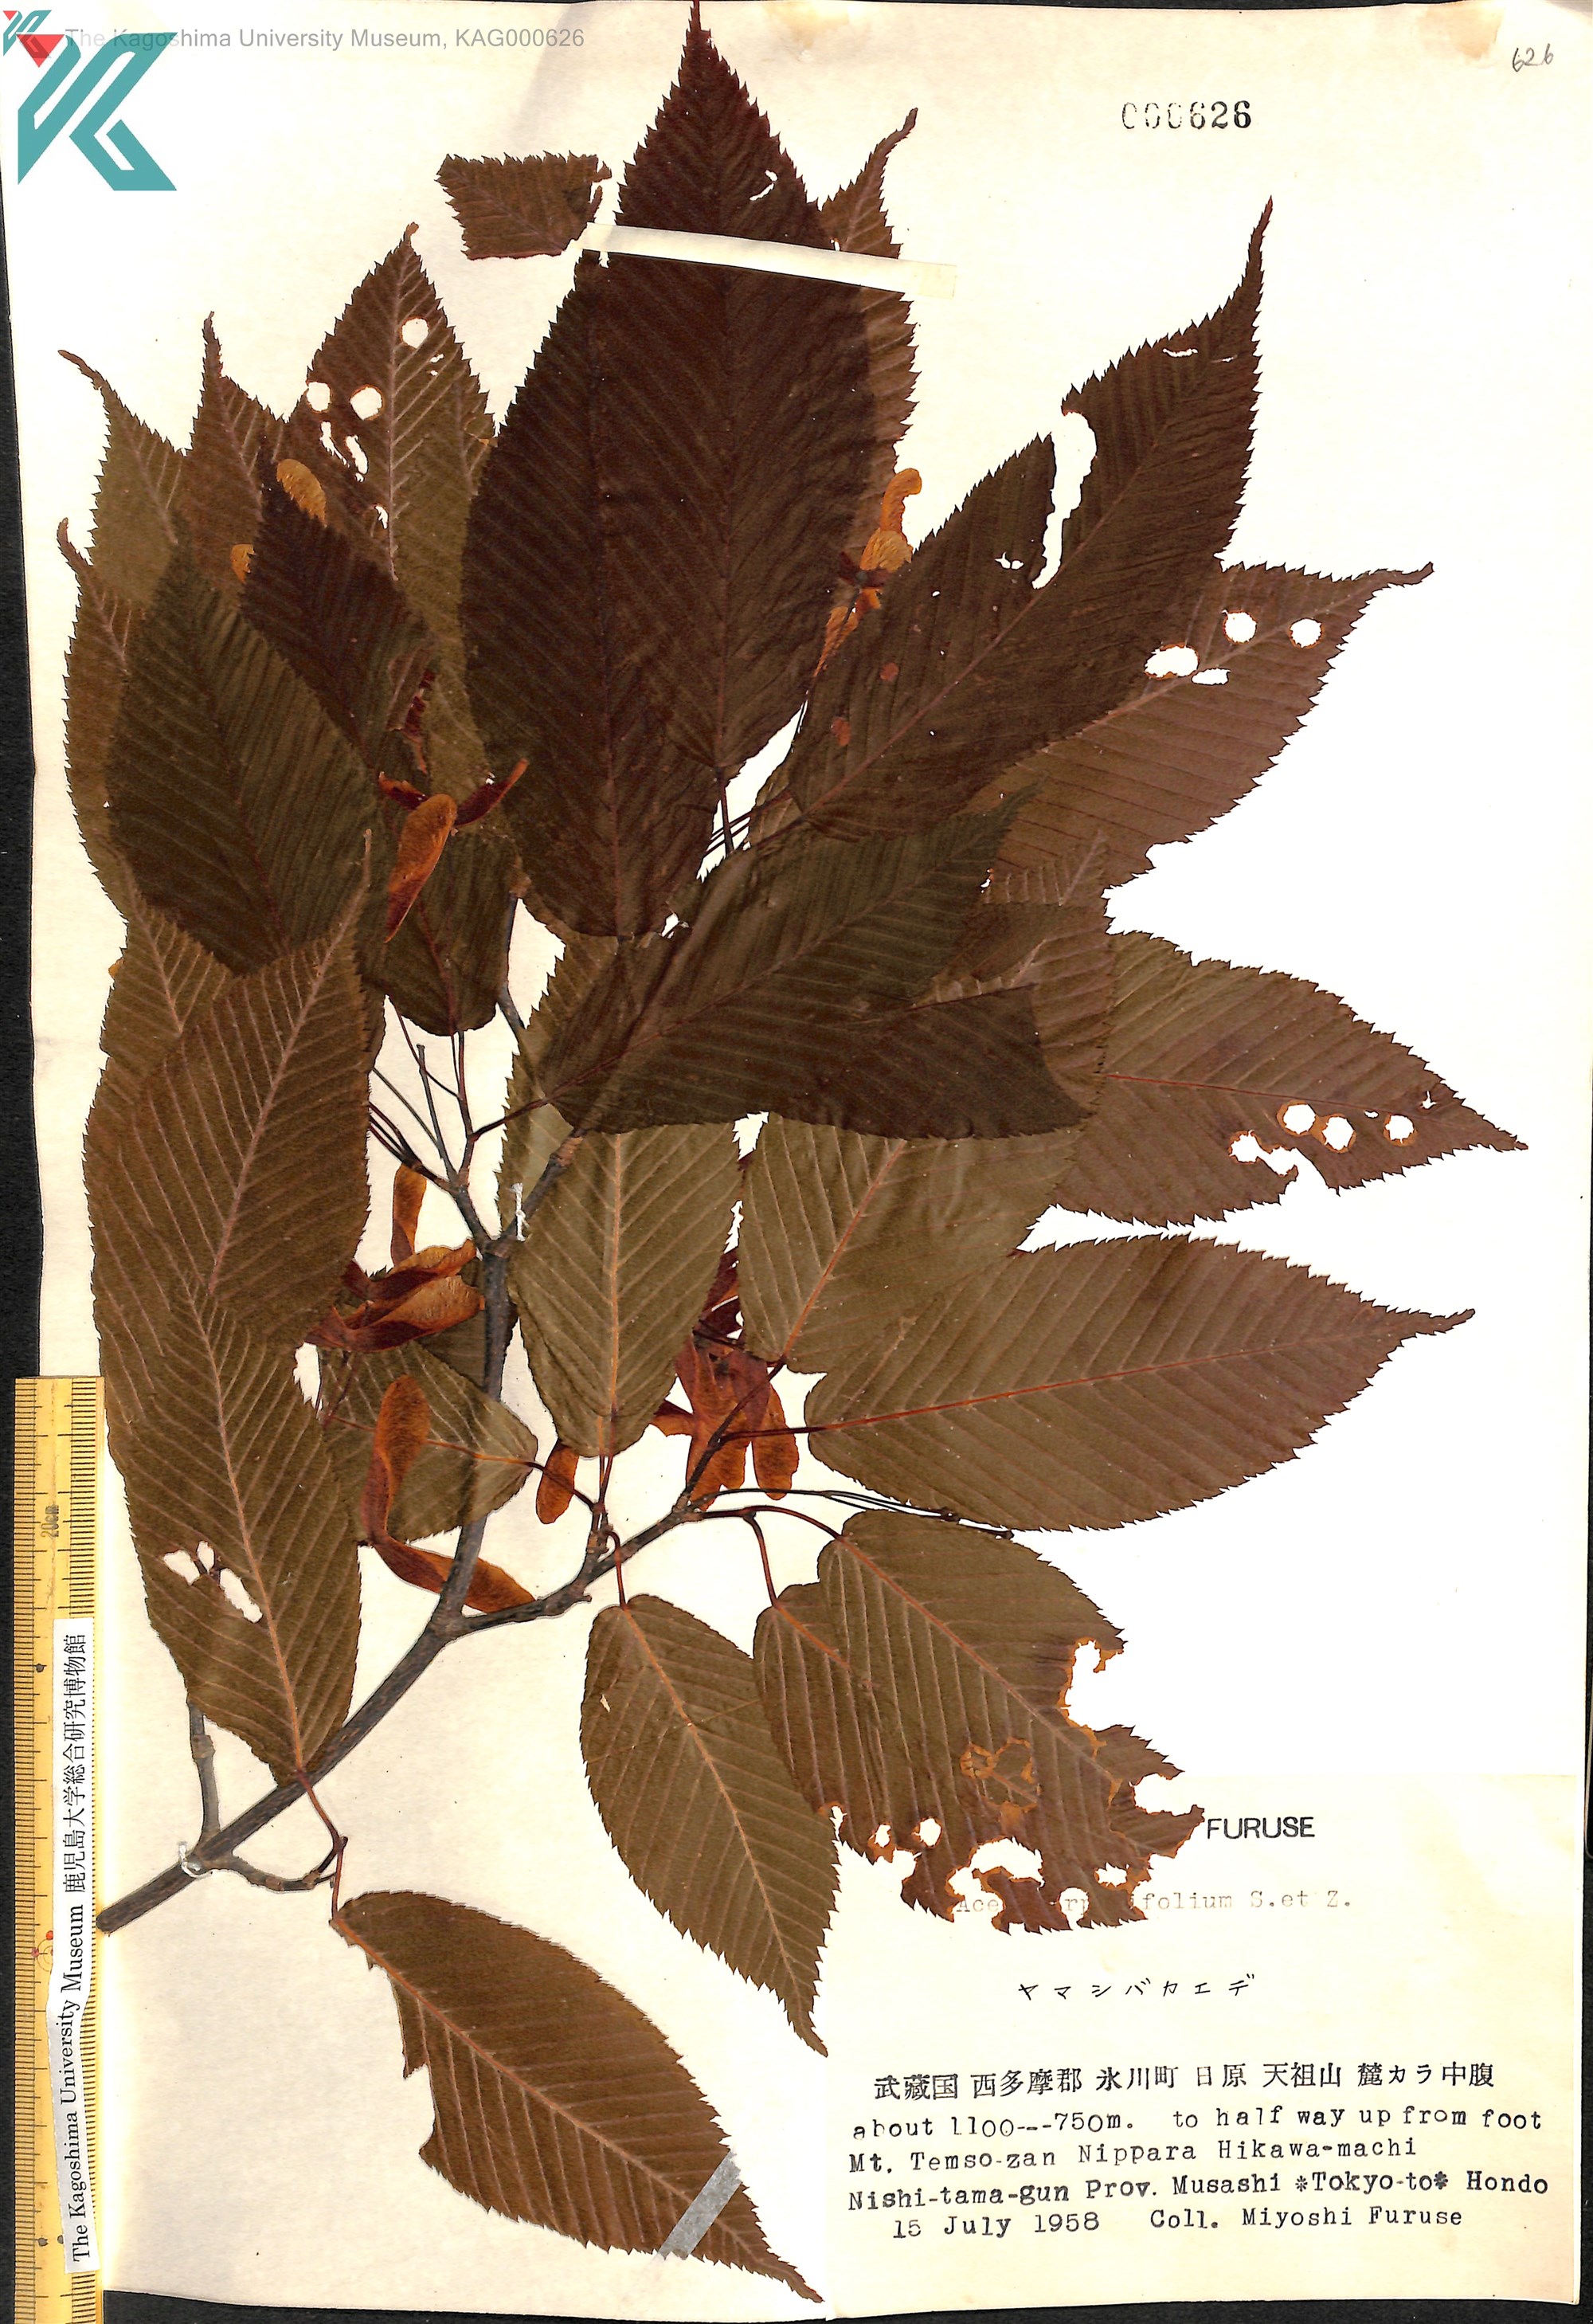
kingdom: Plantae
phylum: Tracheophyta
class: Magnoliopsida
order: Sapindales
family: Sapindaceae
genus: Acer
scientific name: Acer carpinifolium
